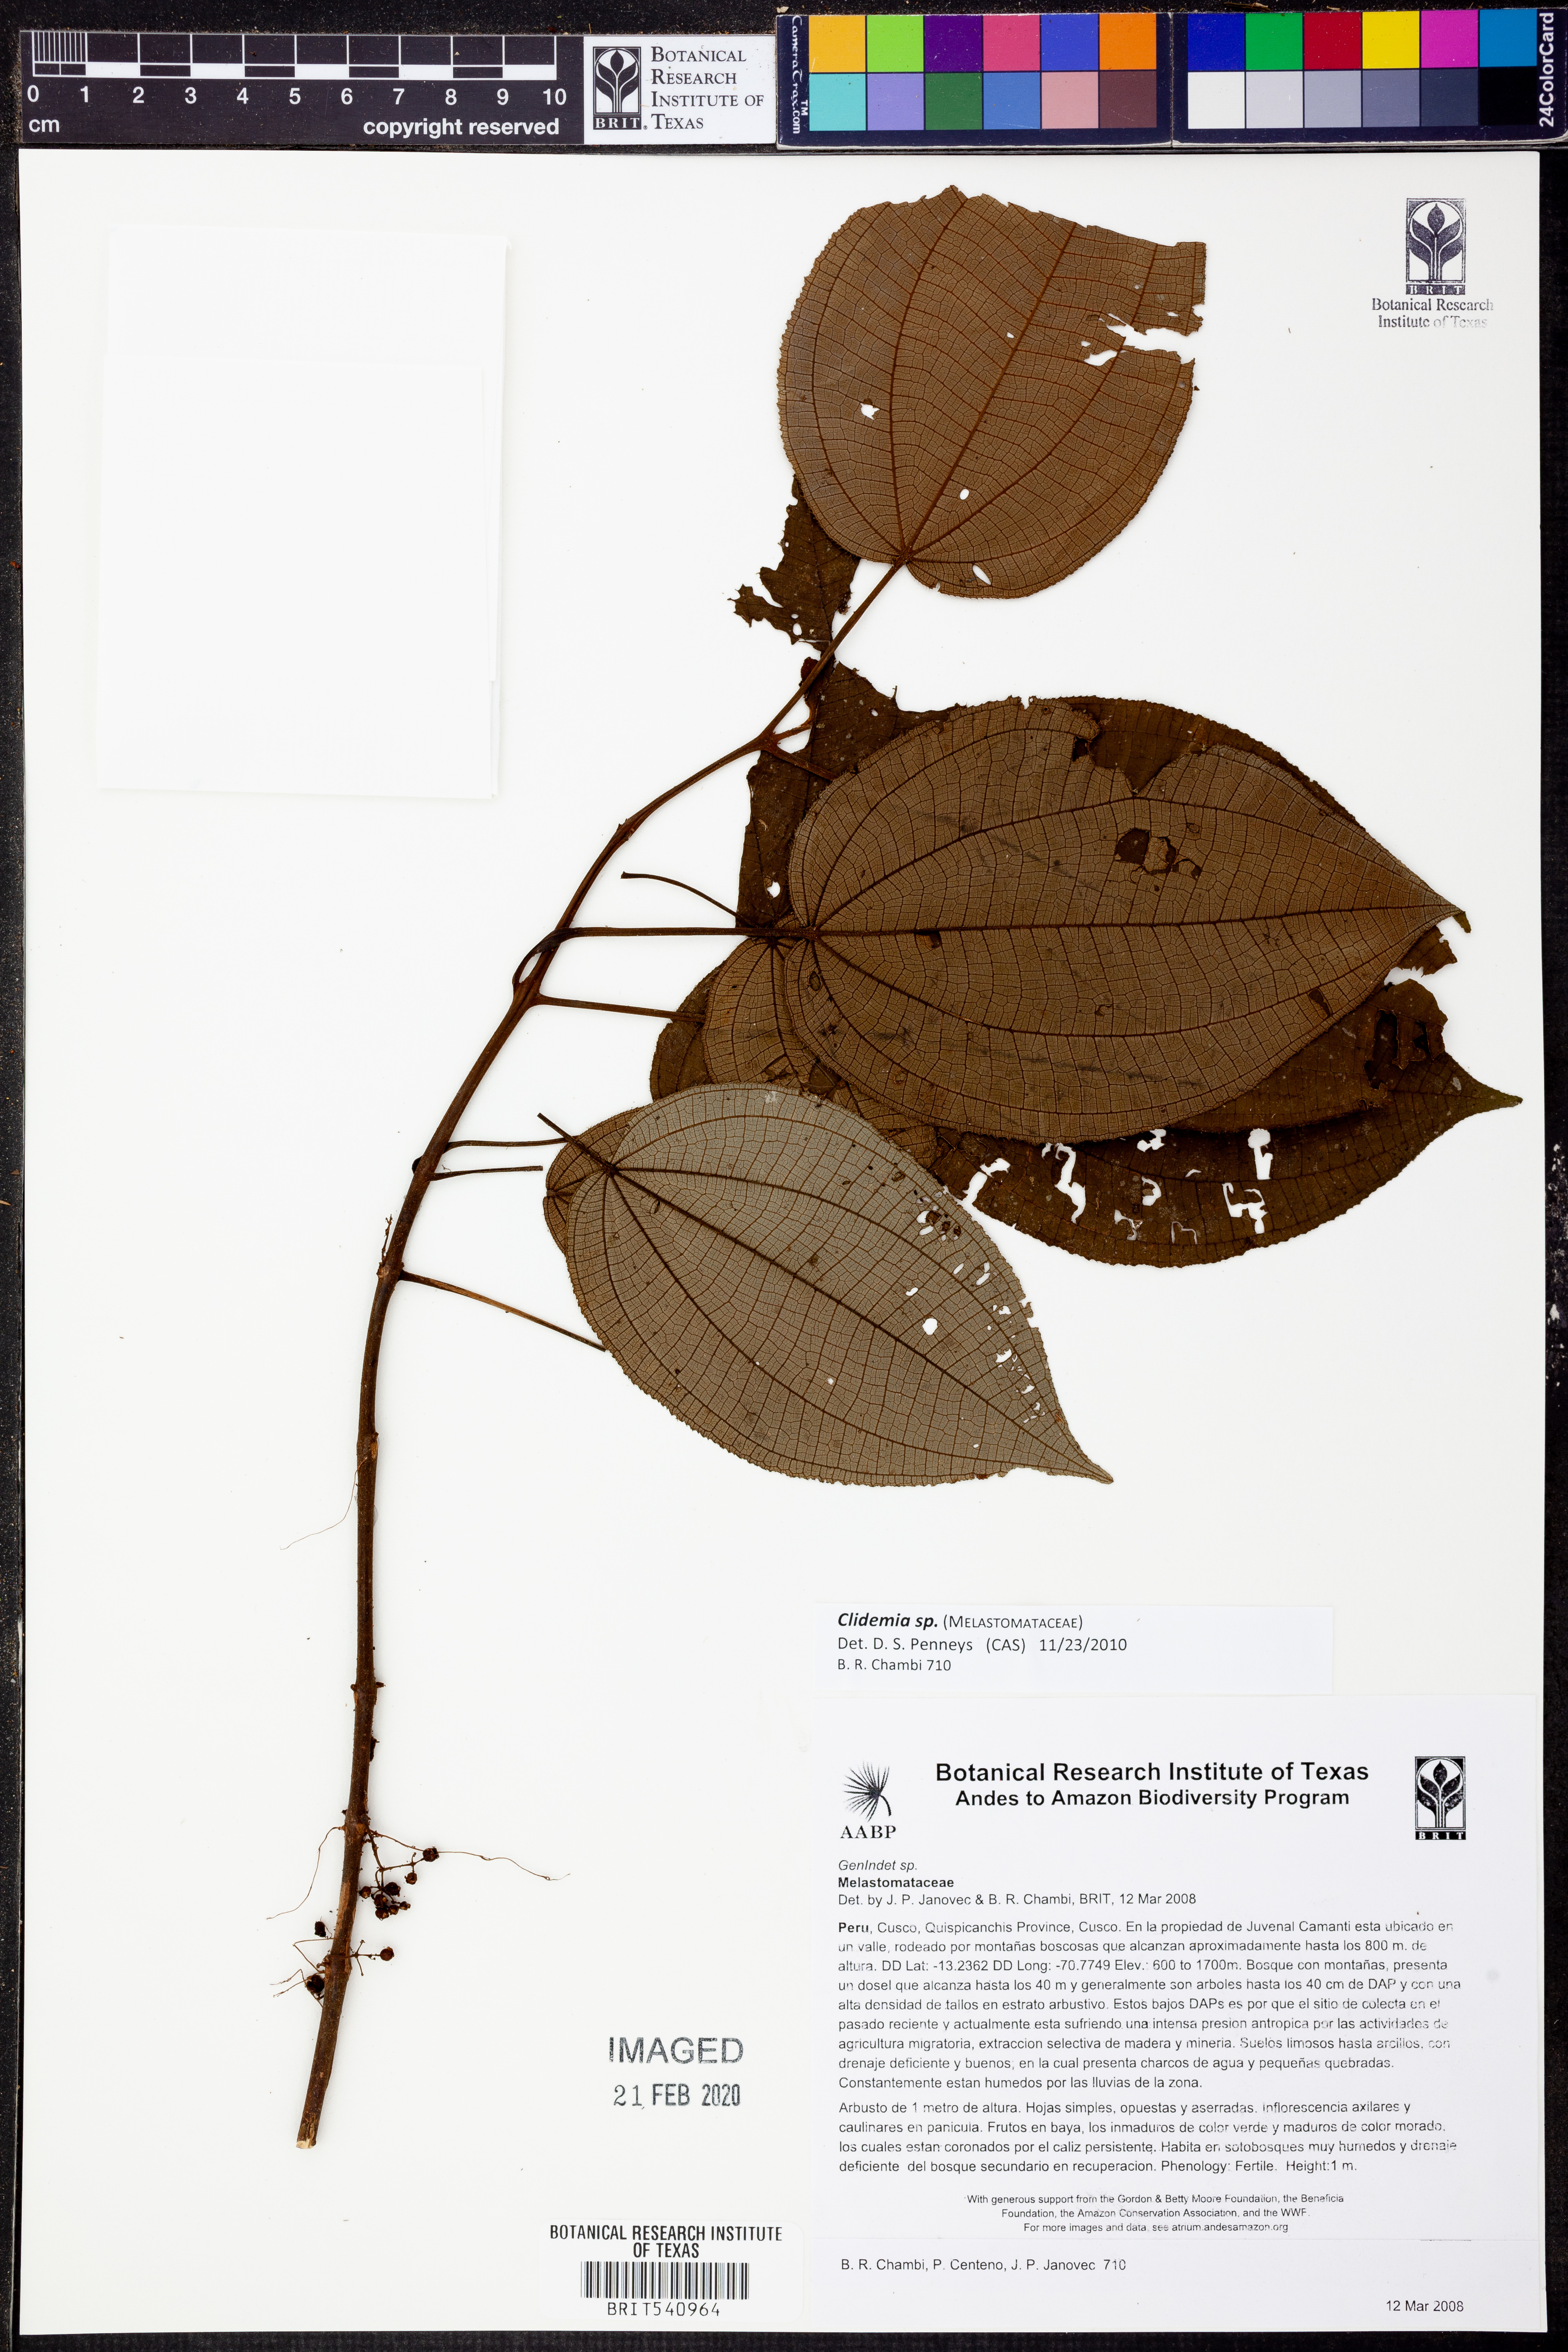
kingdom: Plantae
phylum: Tracheophyta
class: Magnoliopsida
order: Myrtales
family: Melastomataceae
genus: Miconia
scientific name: Miconia
